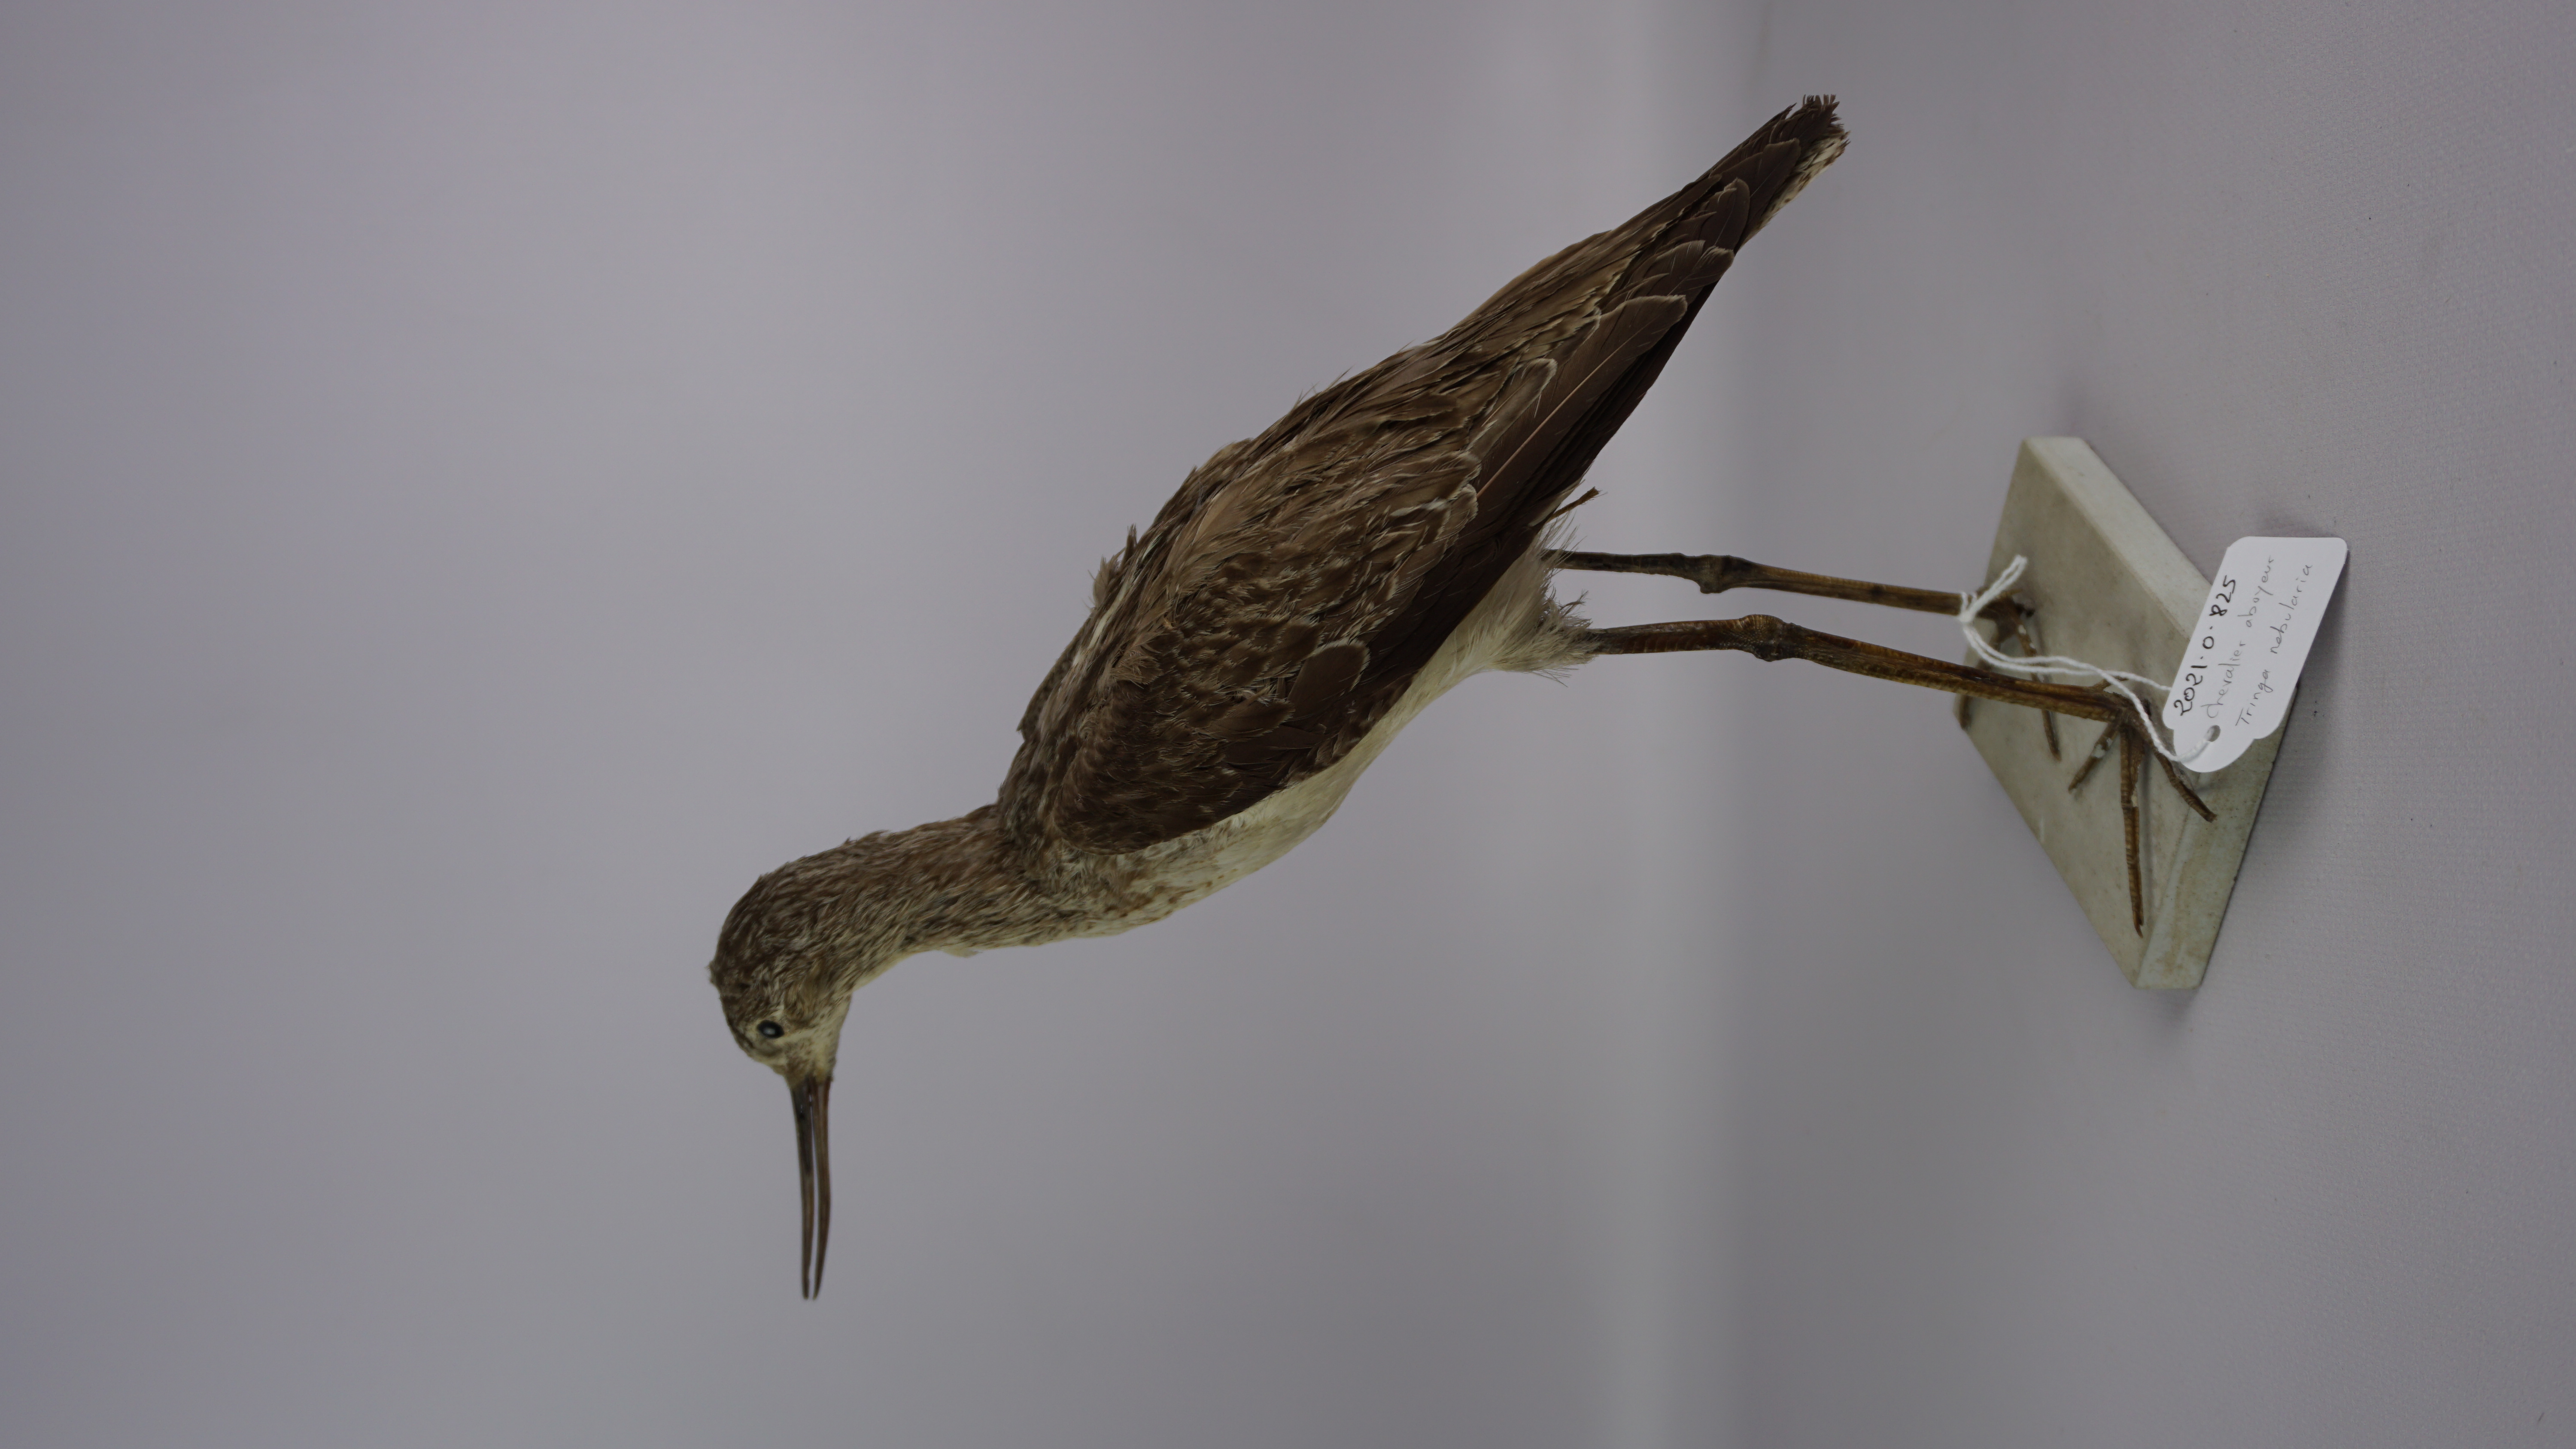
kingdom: Animalia
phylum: Chordata
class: Aves
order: Charadriiformes
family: Scolopacidae
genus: Tringa
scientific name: Tringa nebularia
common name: Common greenshank
